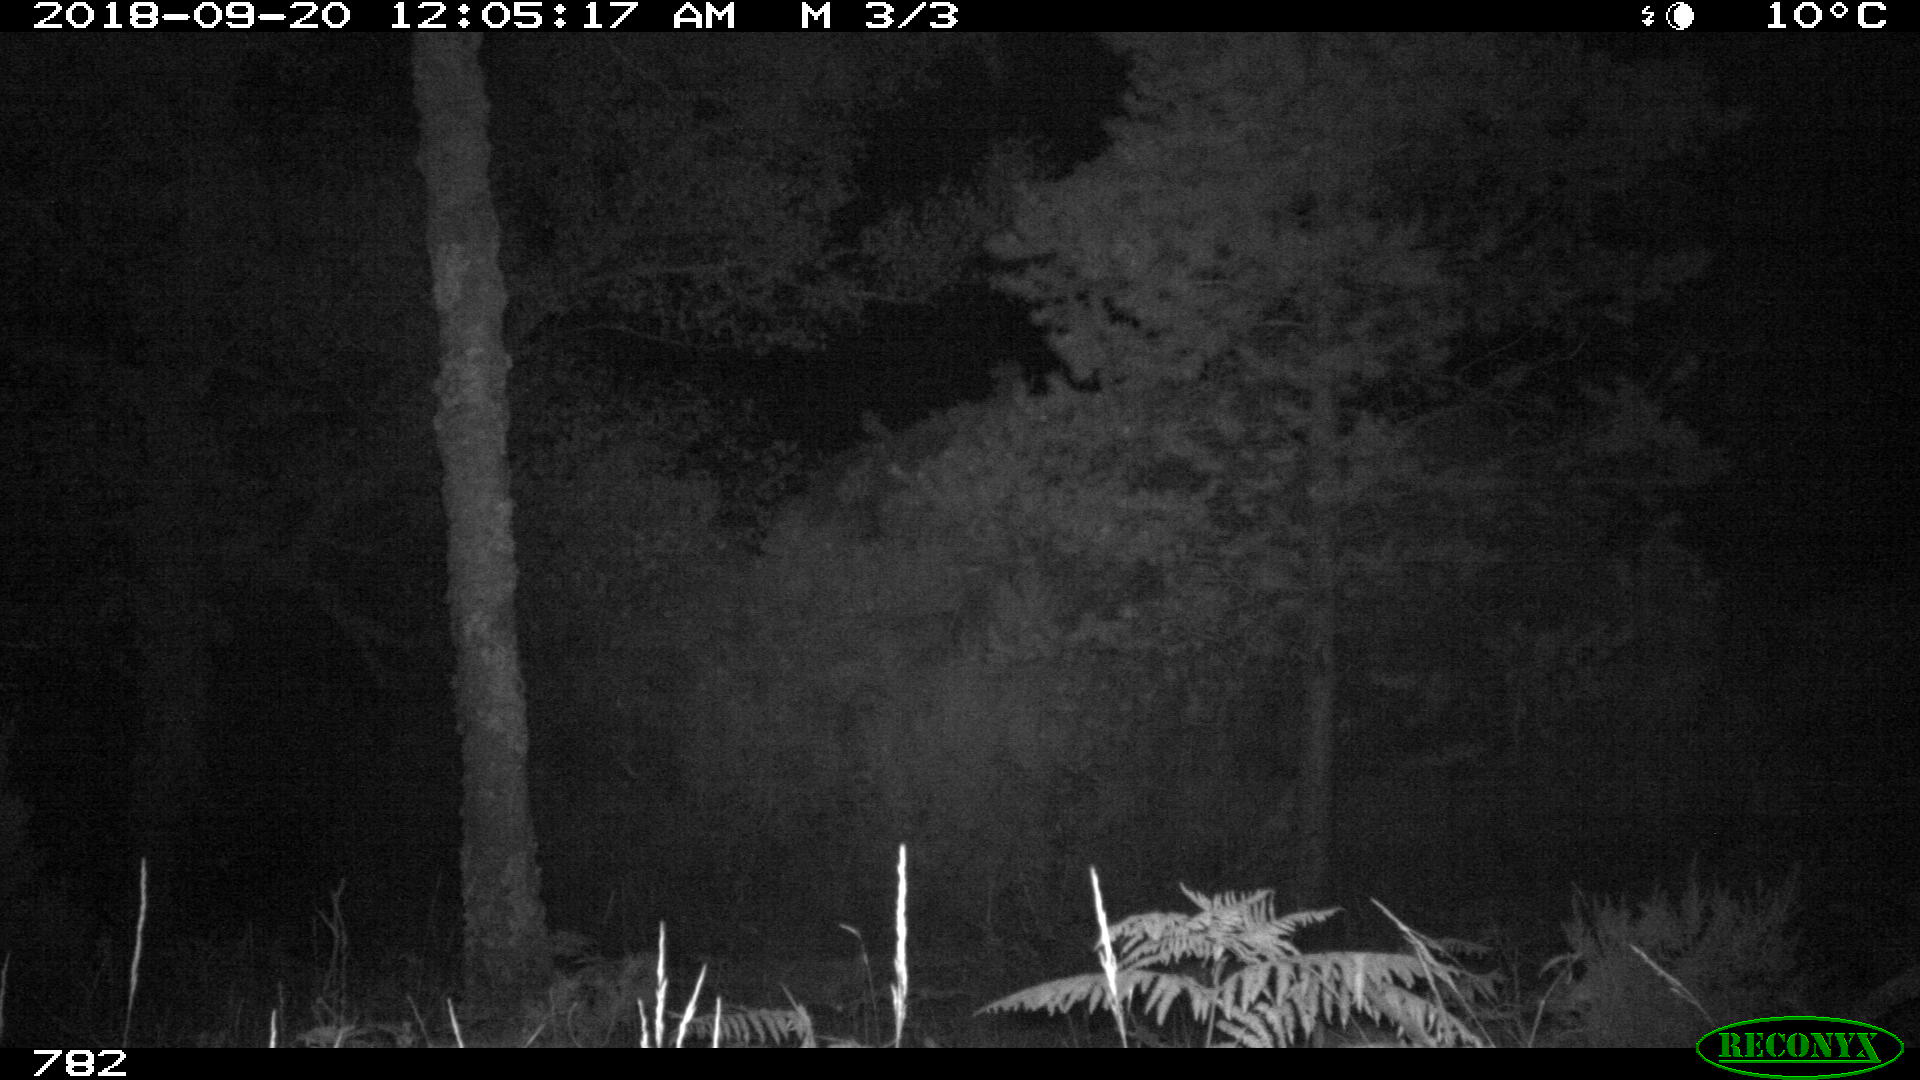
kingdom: Animalia
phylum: Chordata
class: Mammalia
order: Artiodactyla
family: Bovidae
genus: Bos
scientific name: Bos taurus
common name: Domesticated cattle
